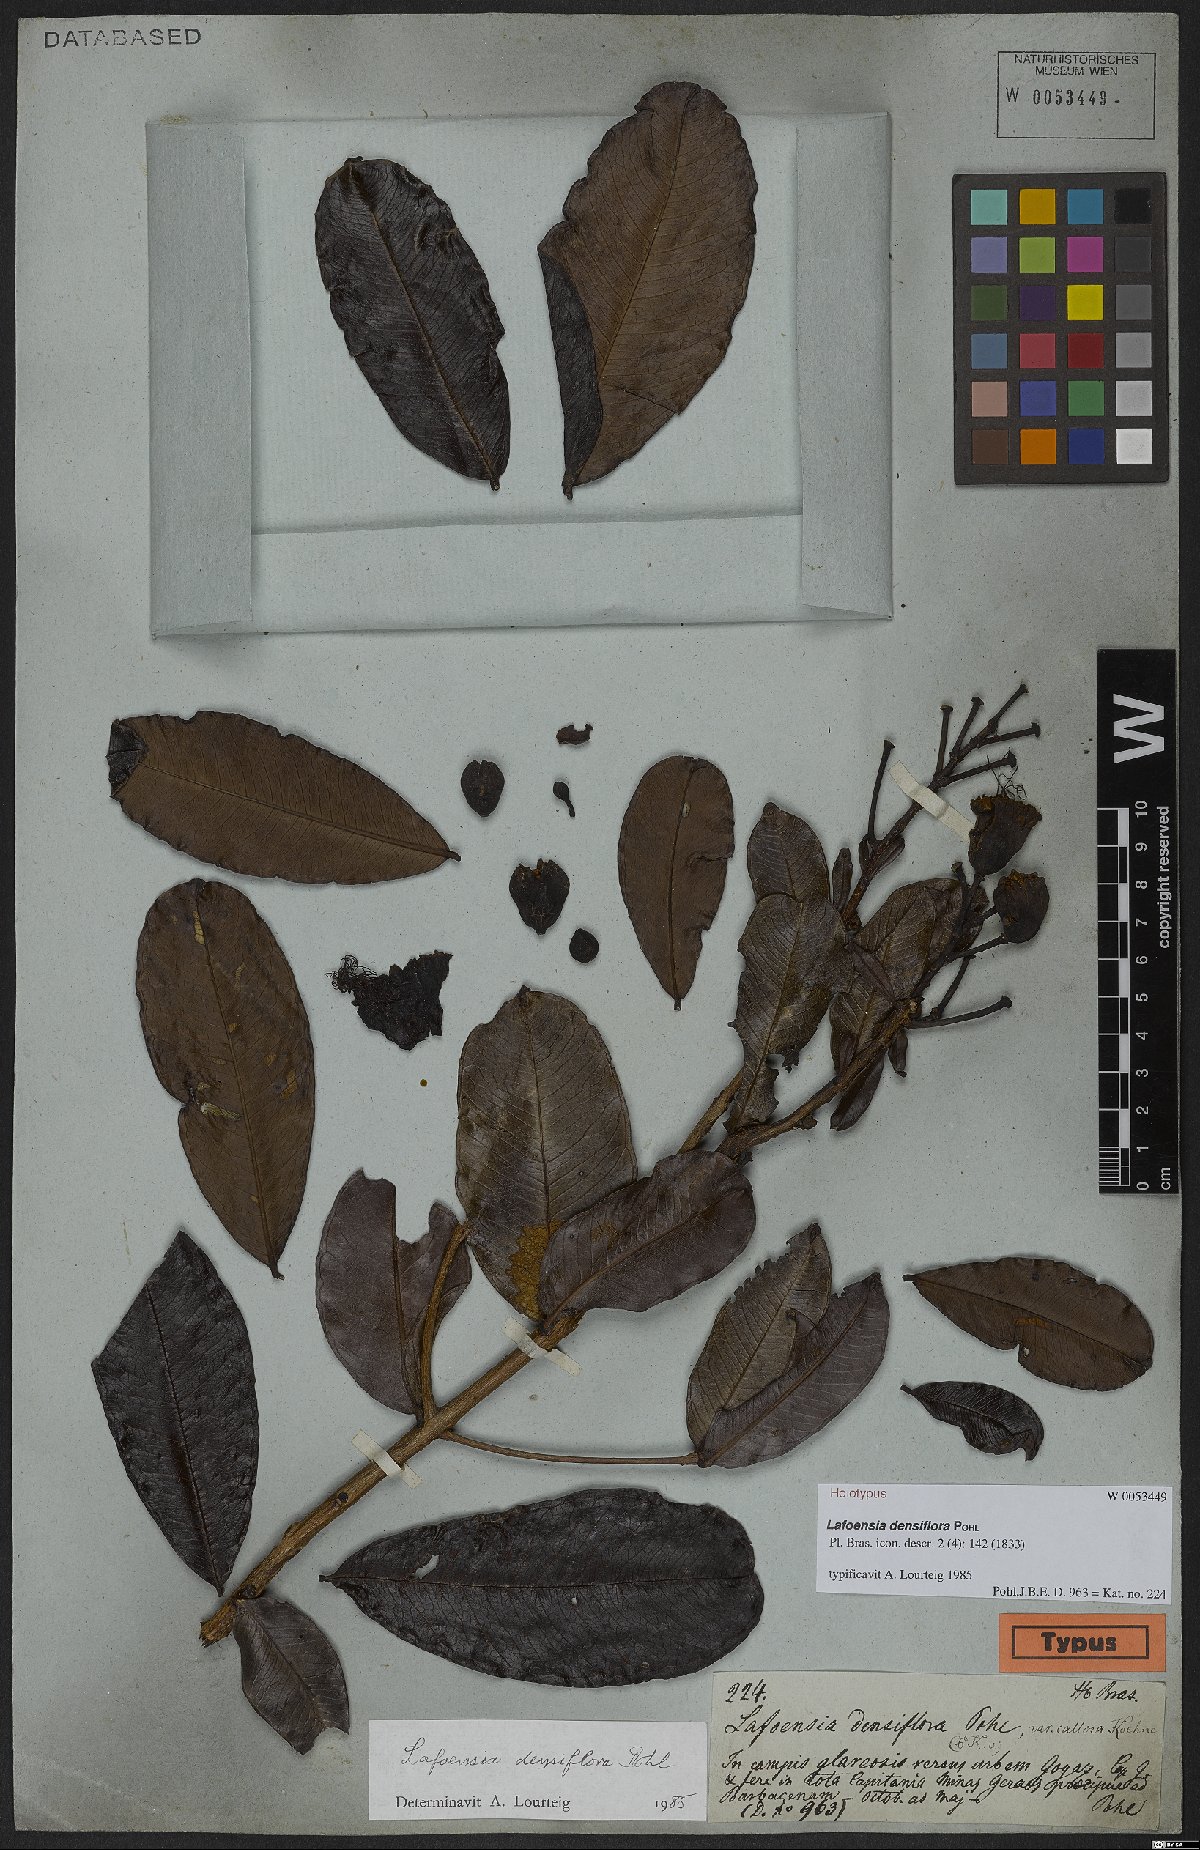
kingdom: Plantae
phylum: Tracheophyta
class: Magnoliopsida
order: Myrtales
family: Lythraceae
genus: Lafoensia
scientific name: Lafoensia vandelliana
